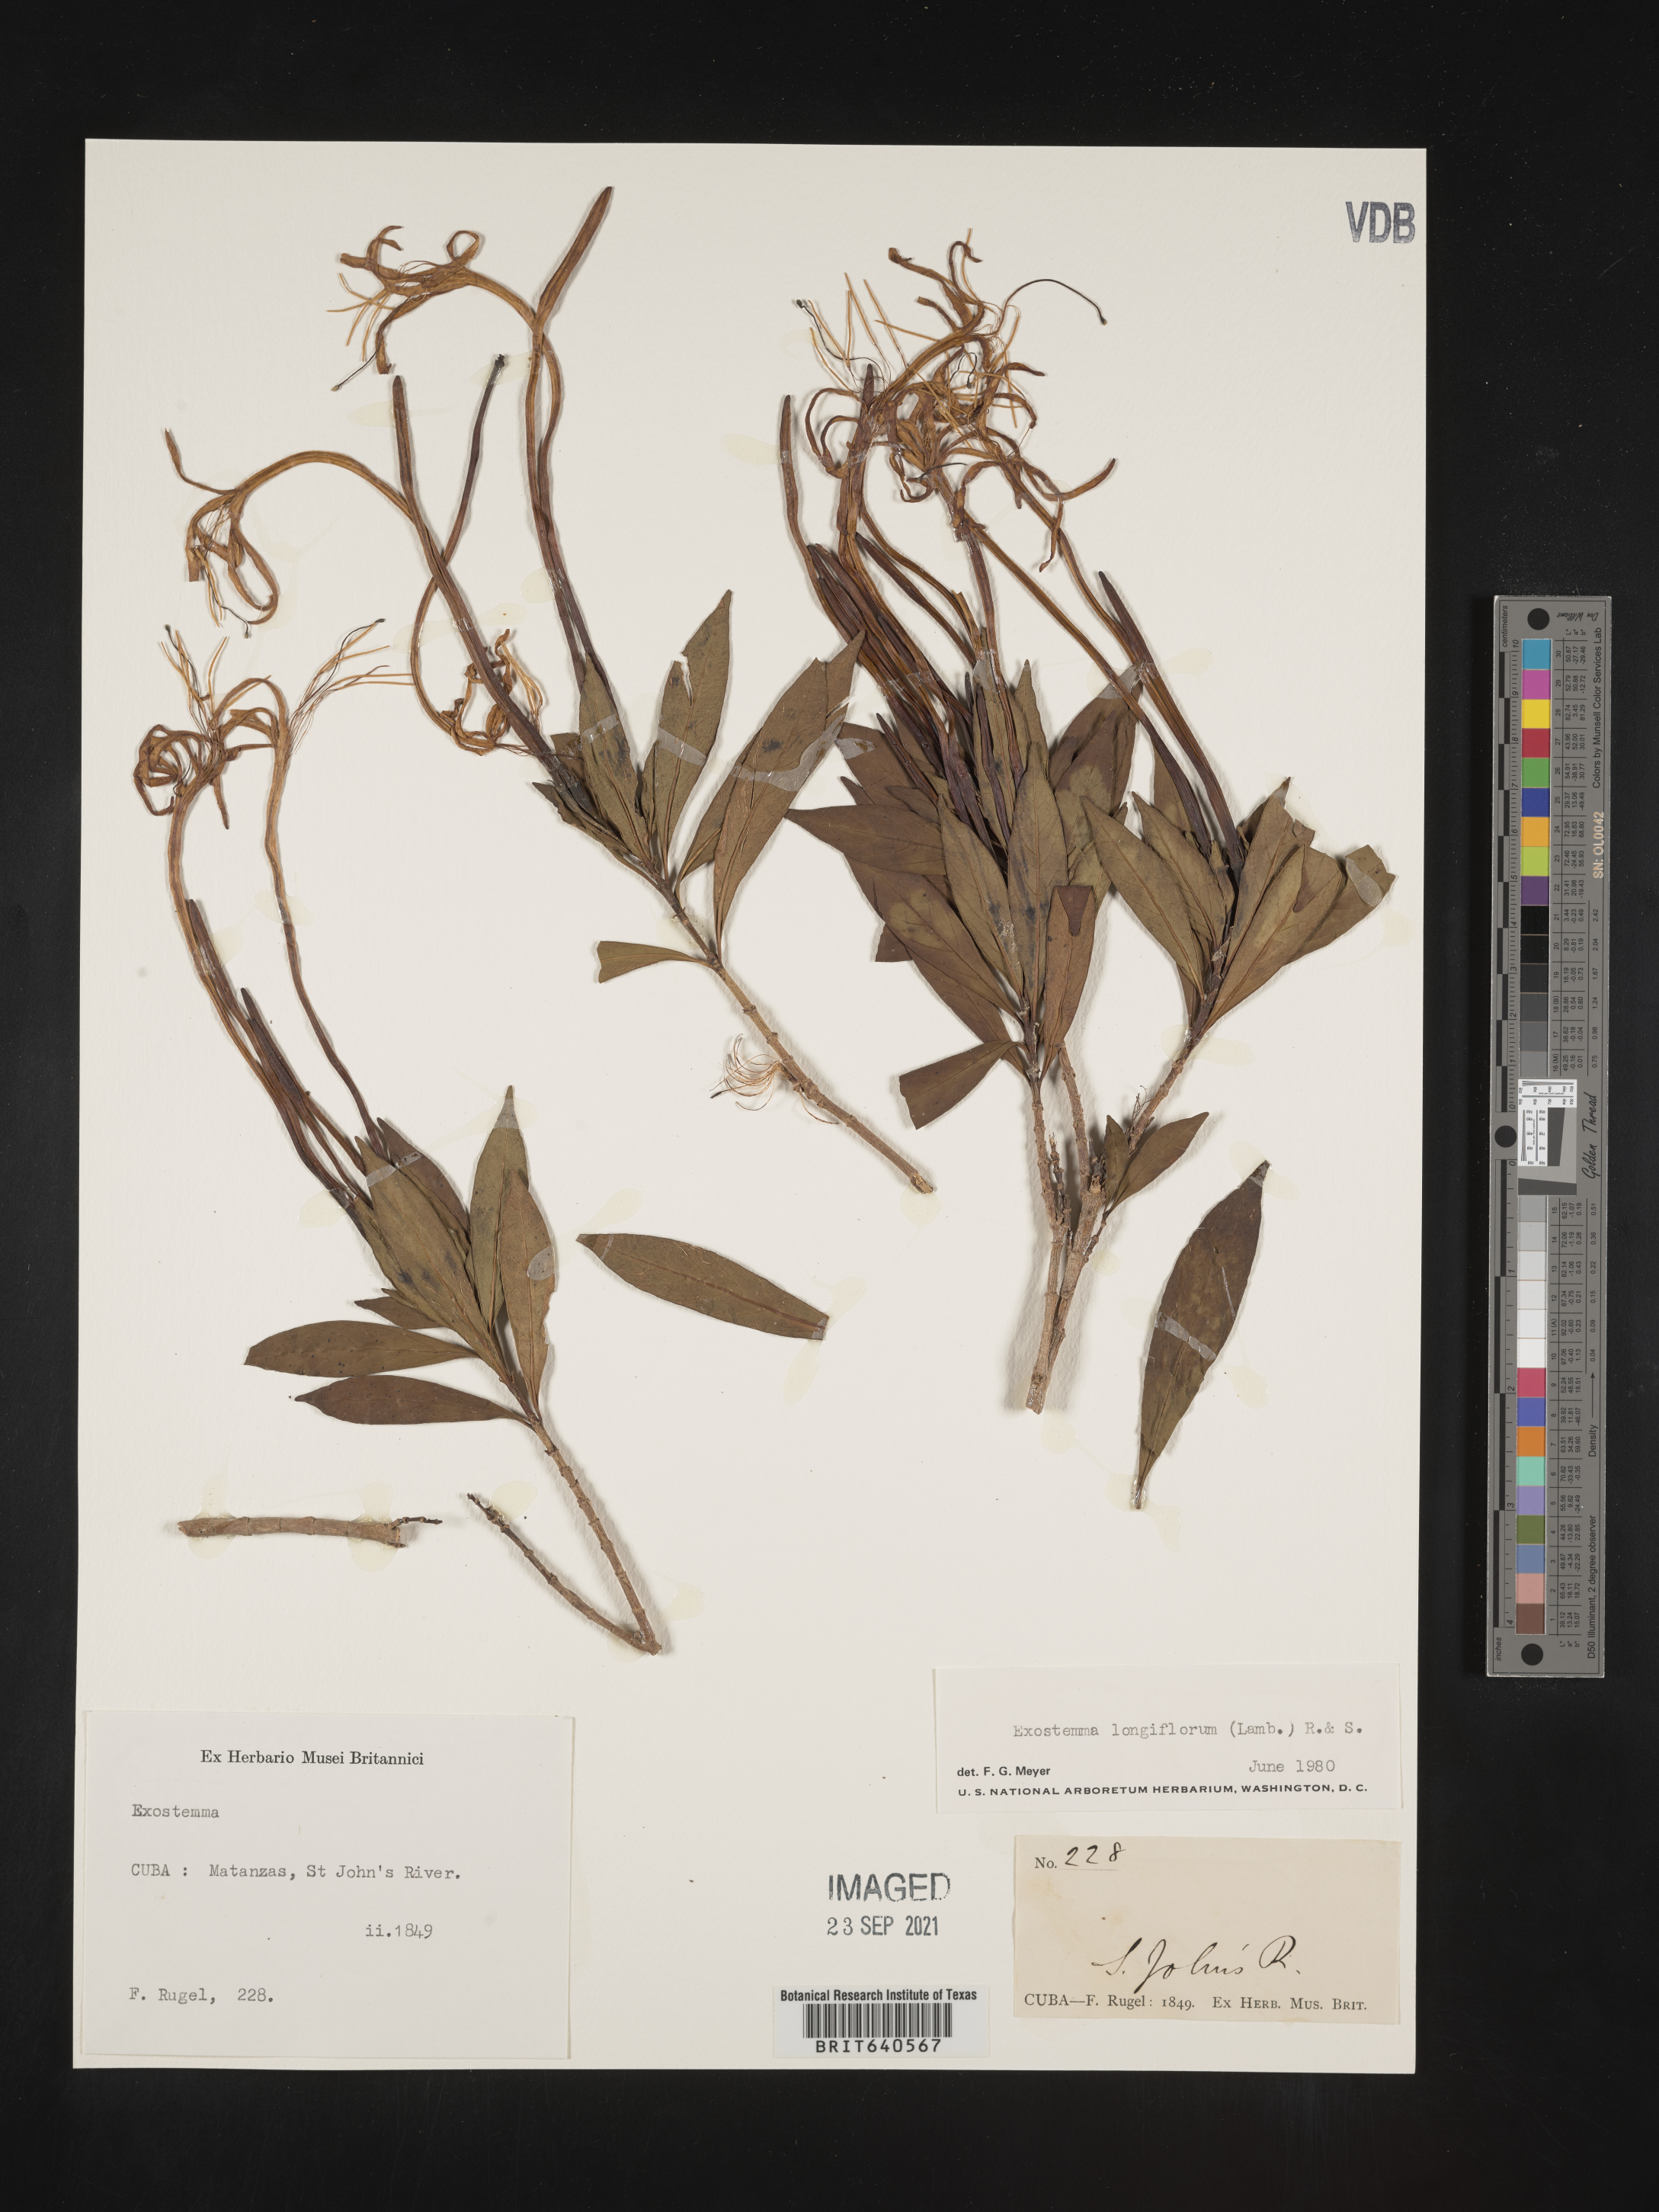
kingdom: Plantae
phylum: Tracheophyta
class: Magnoliopsida
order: Gentianales
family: Rubiaceae
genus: Exostema
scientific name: Exostema
